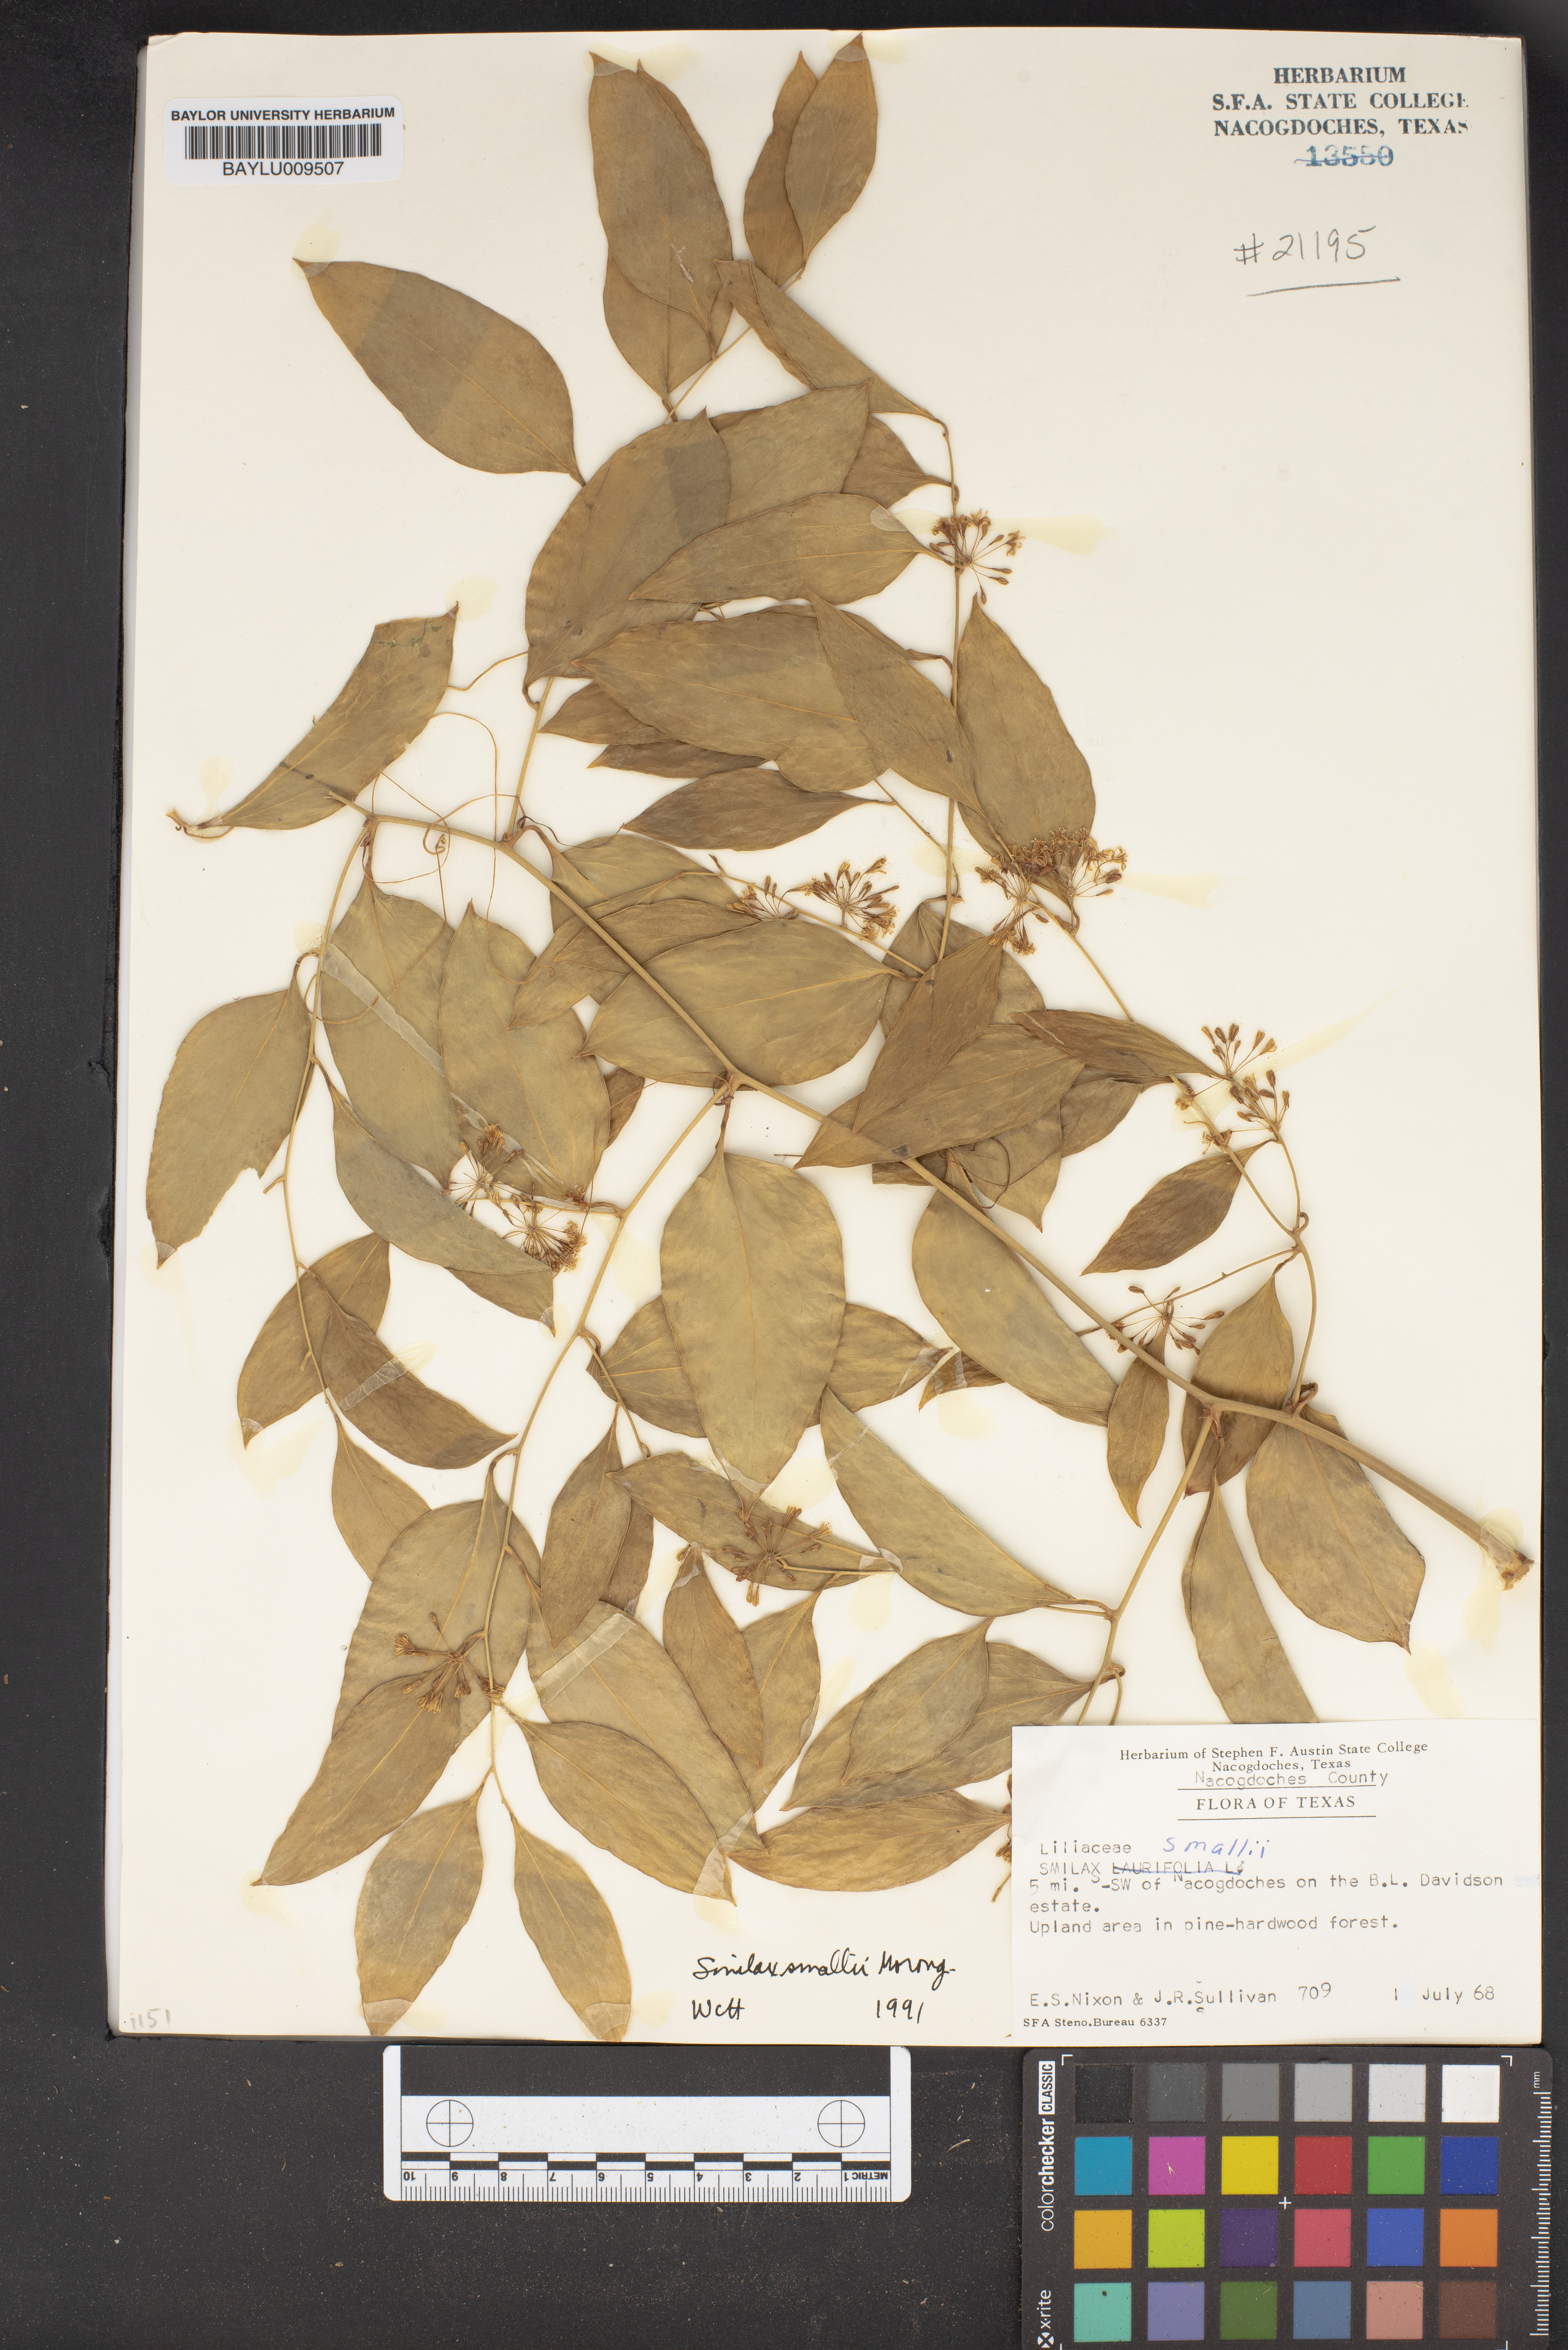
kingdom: Plantae
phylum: Tracheophyta
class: Liliopsida
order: Liliales
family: Smilacaceae
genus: Smilax
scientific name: Smilax maritima
